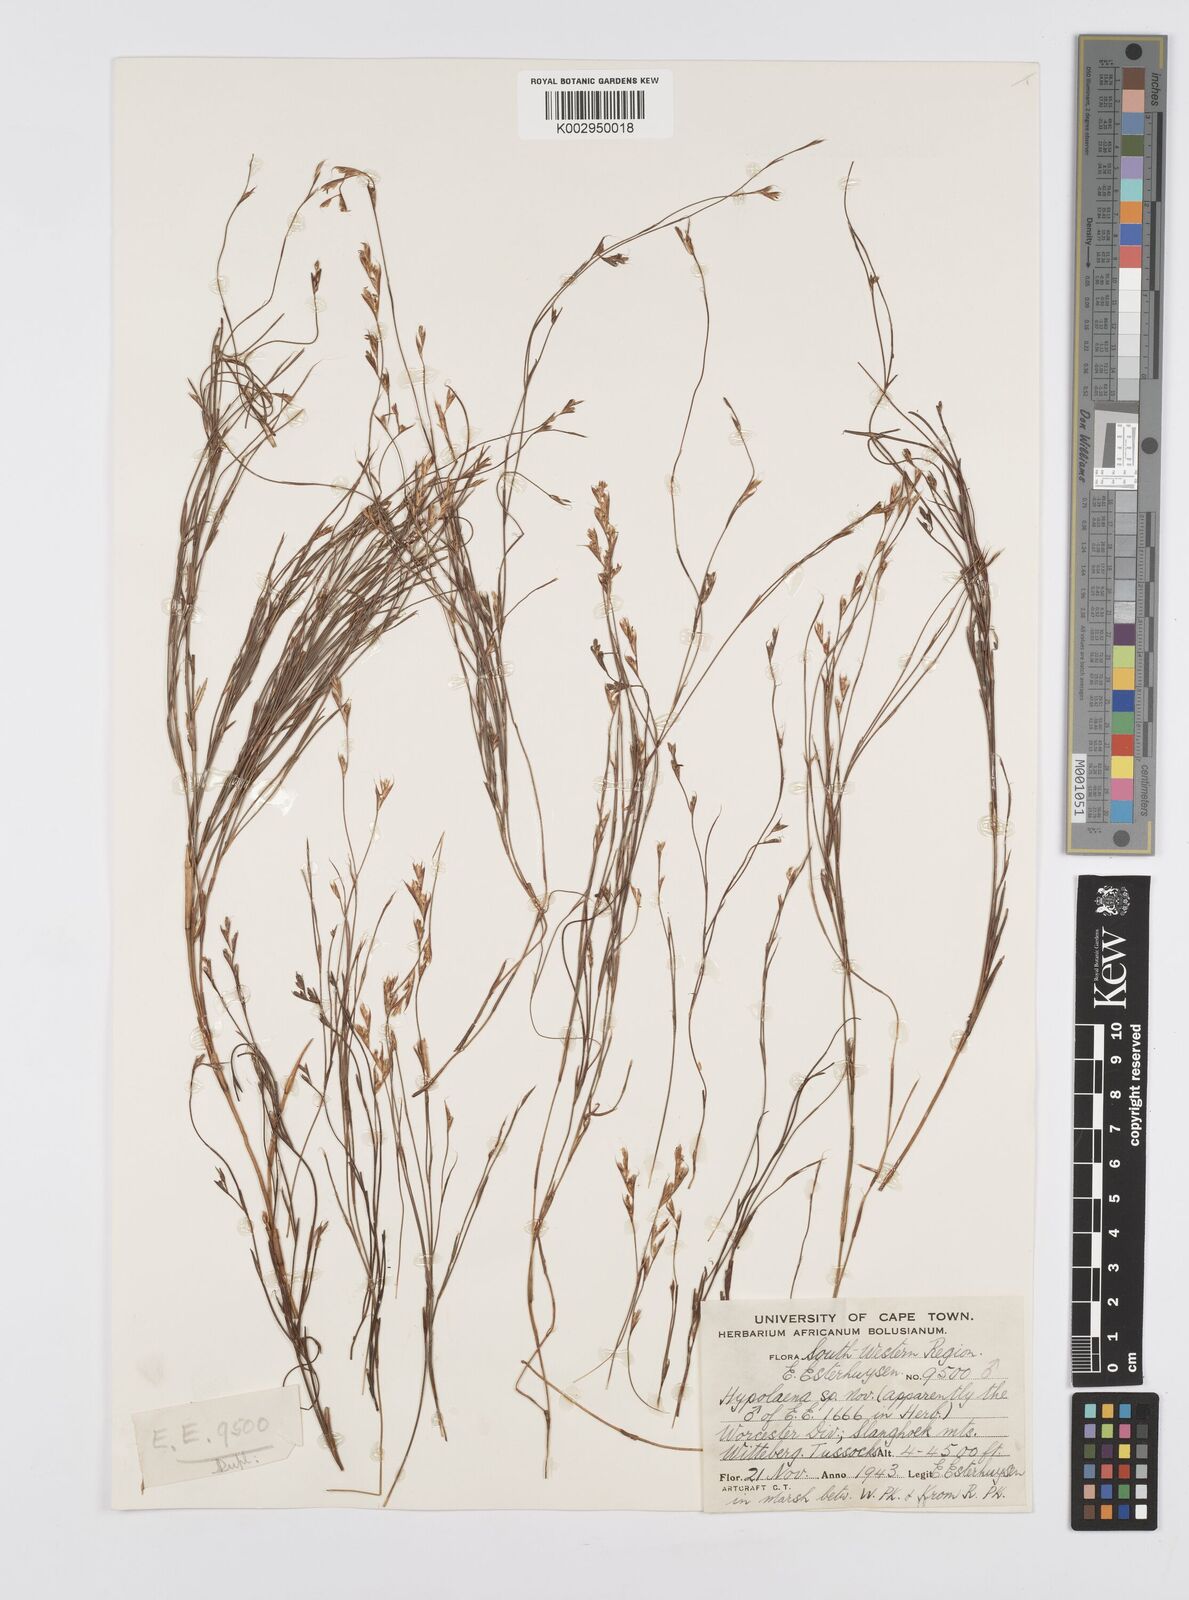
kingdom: Plantae
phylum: Tracheophyta
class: Liliopsida
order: Poales
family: Restionaceae
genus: Anthochortus
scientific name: Anthochortus
